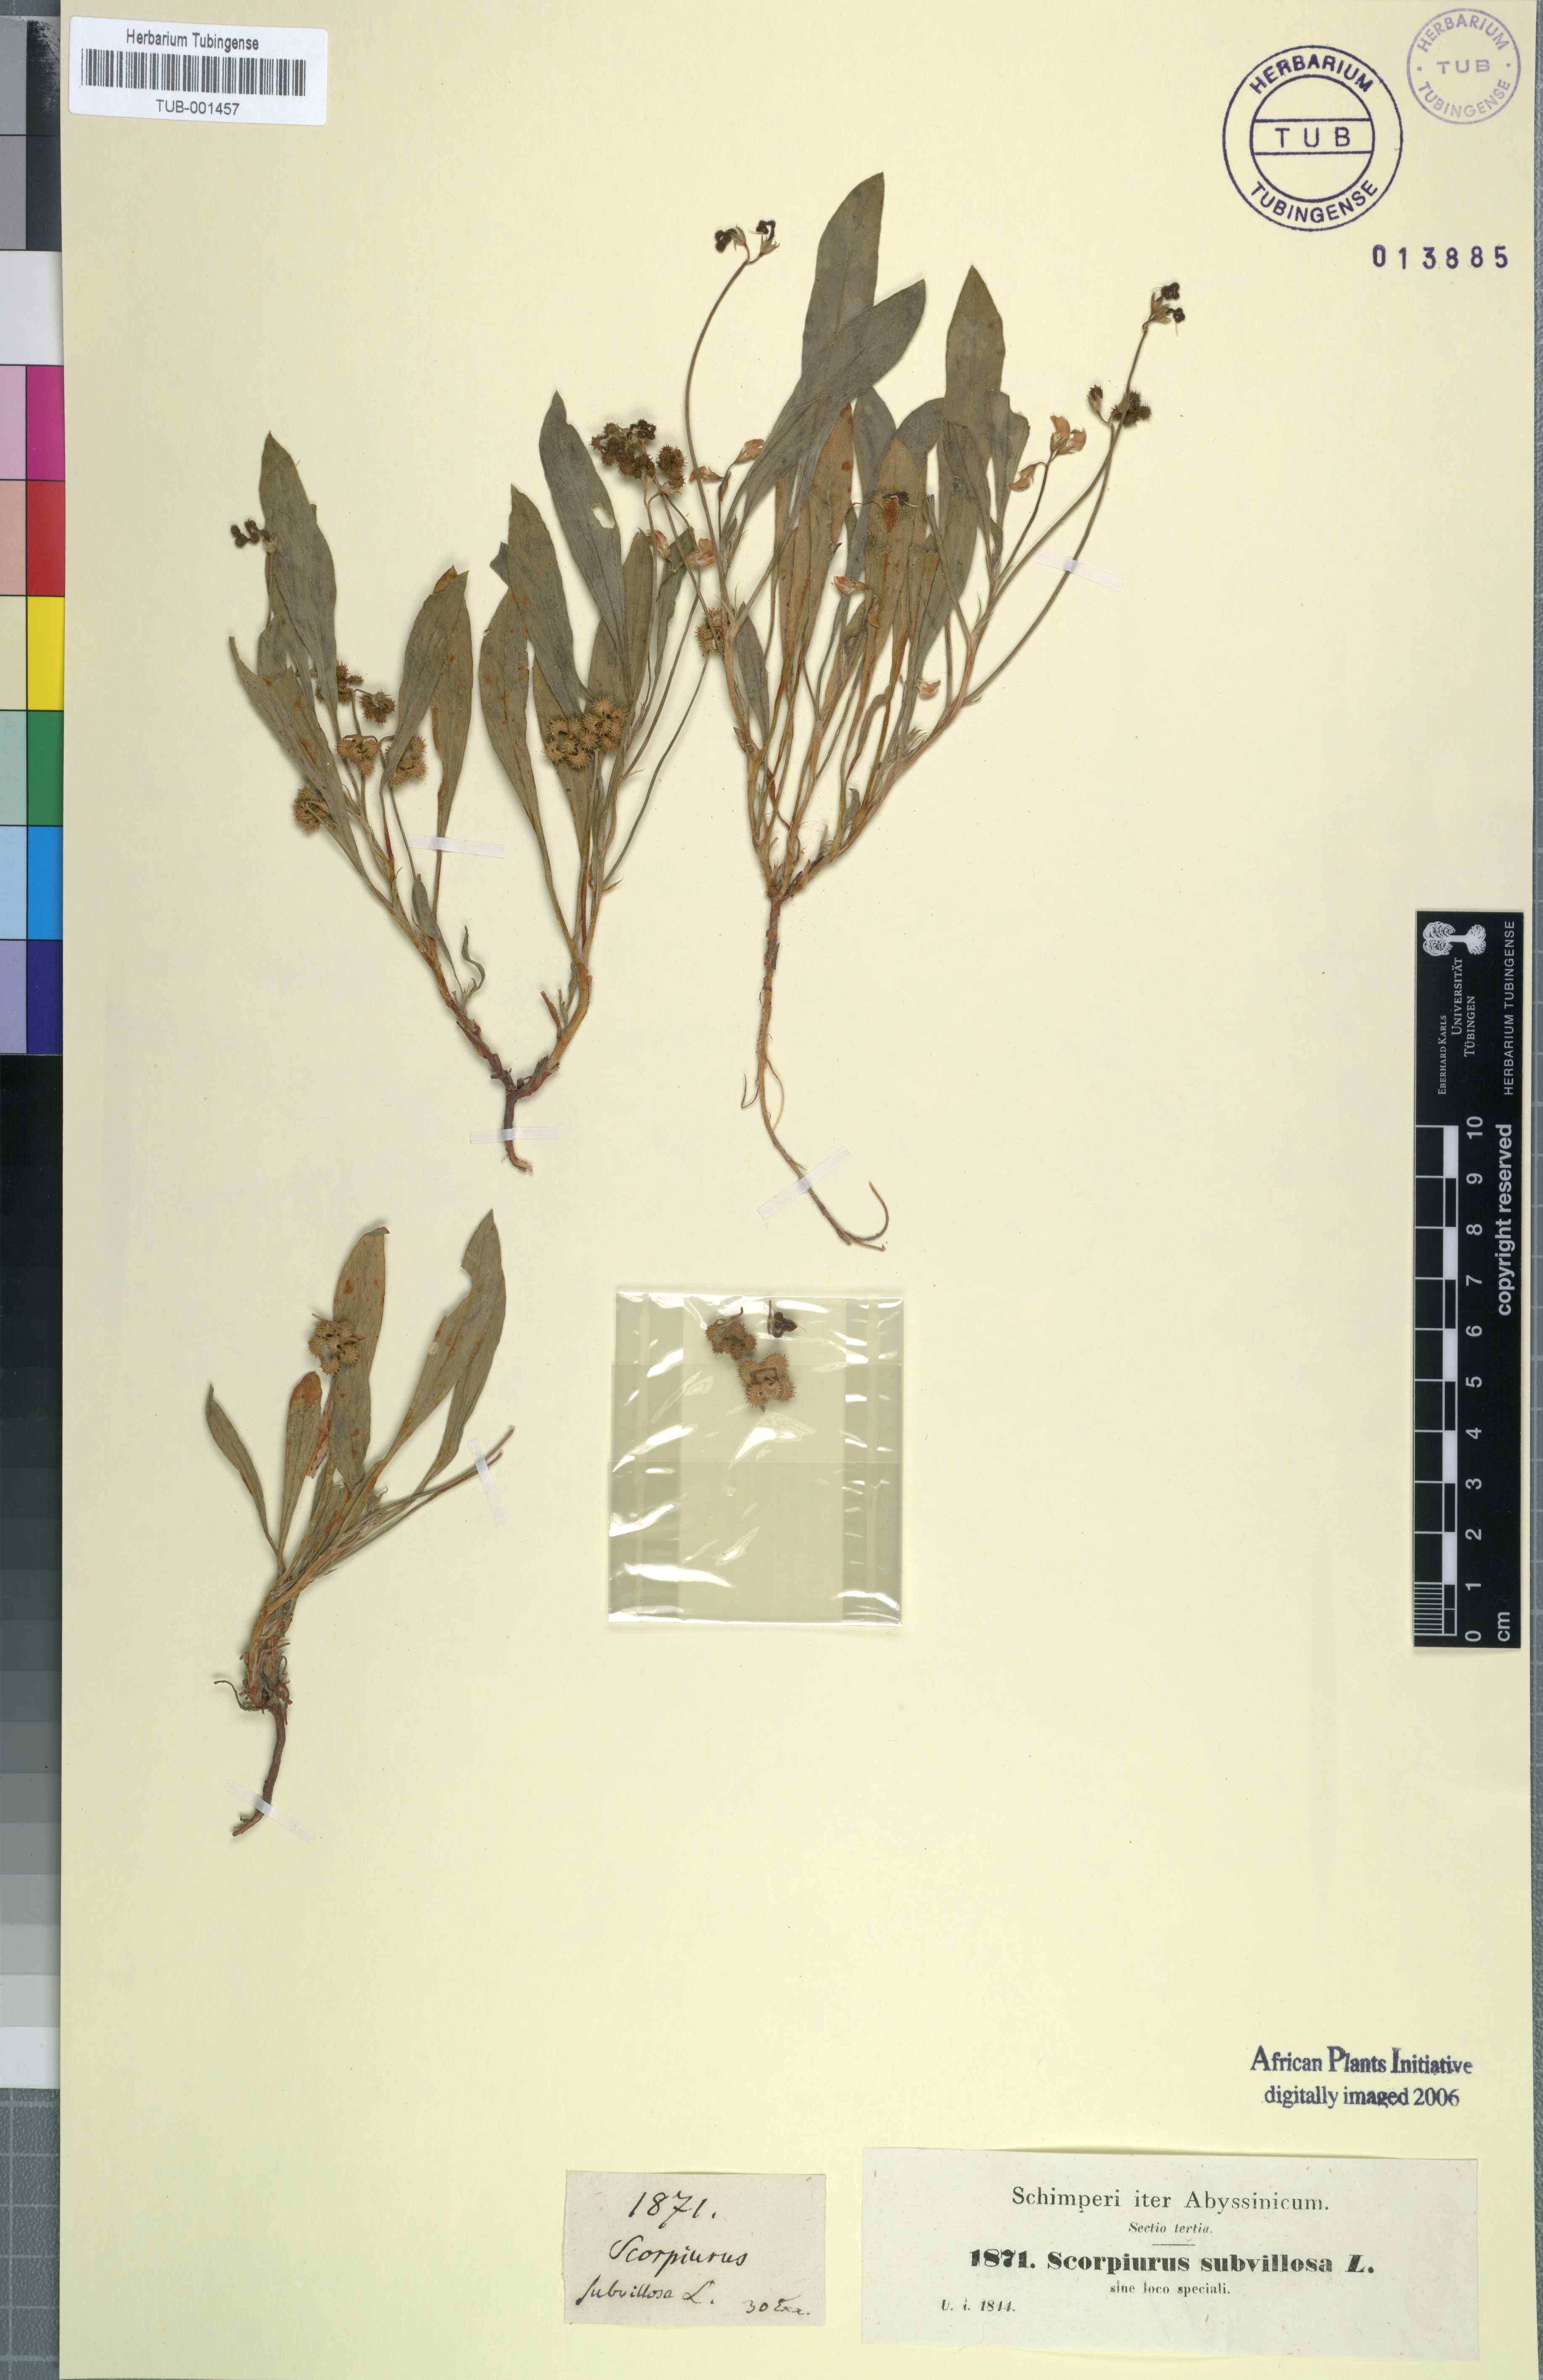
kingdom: Plantae
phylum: Tracheophyta
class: Magnoliopsida
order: Fabales
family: Fabaceae
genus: Scorpiurus
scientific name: Scorpiurus muricatus
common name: Caterpillar-plant
